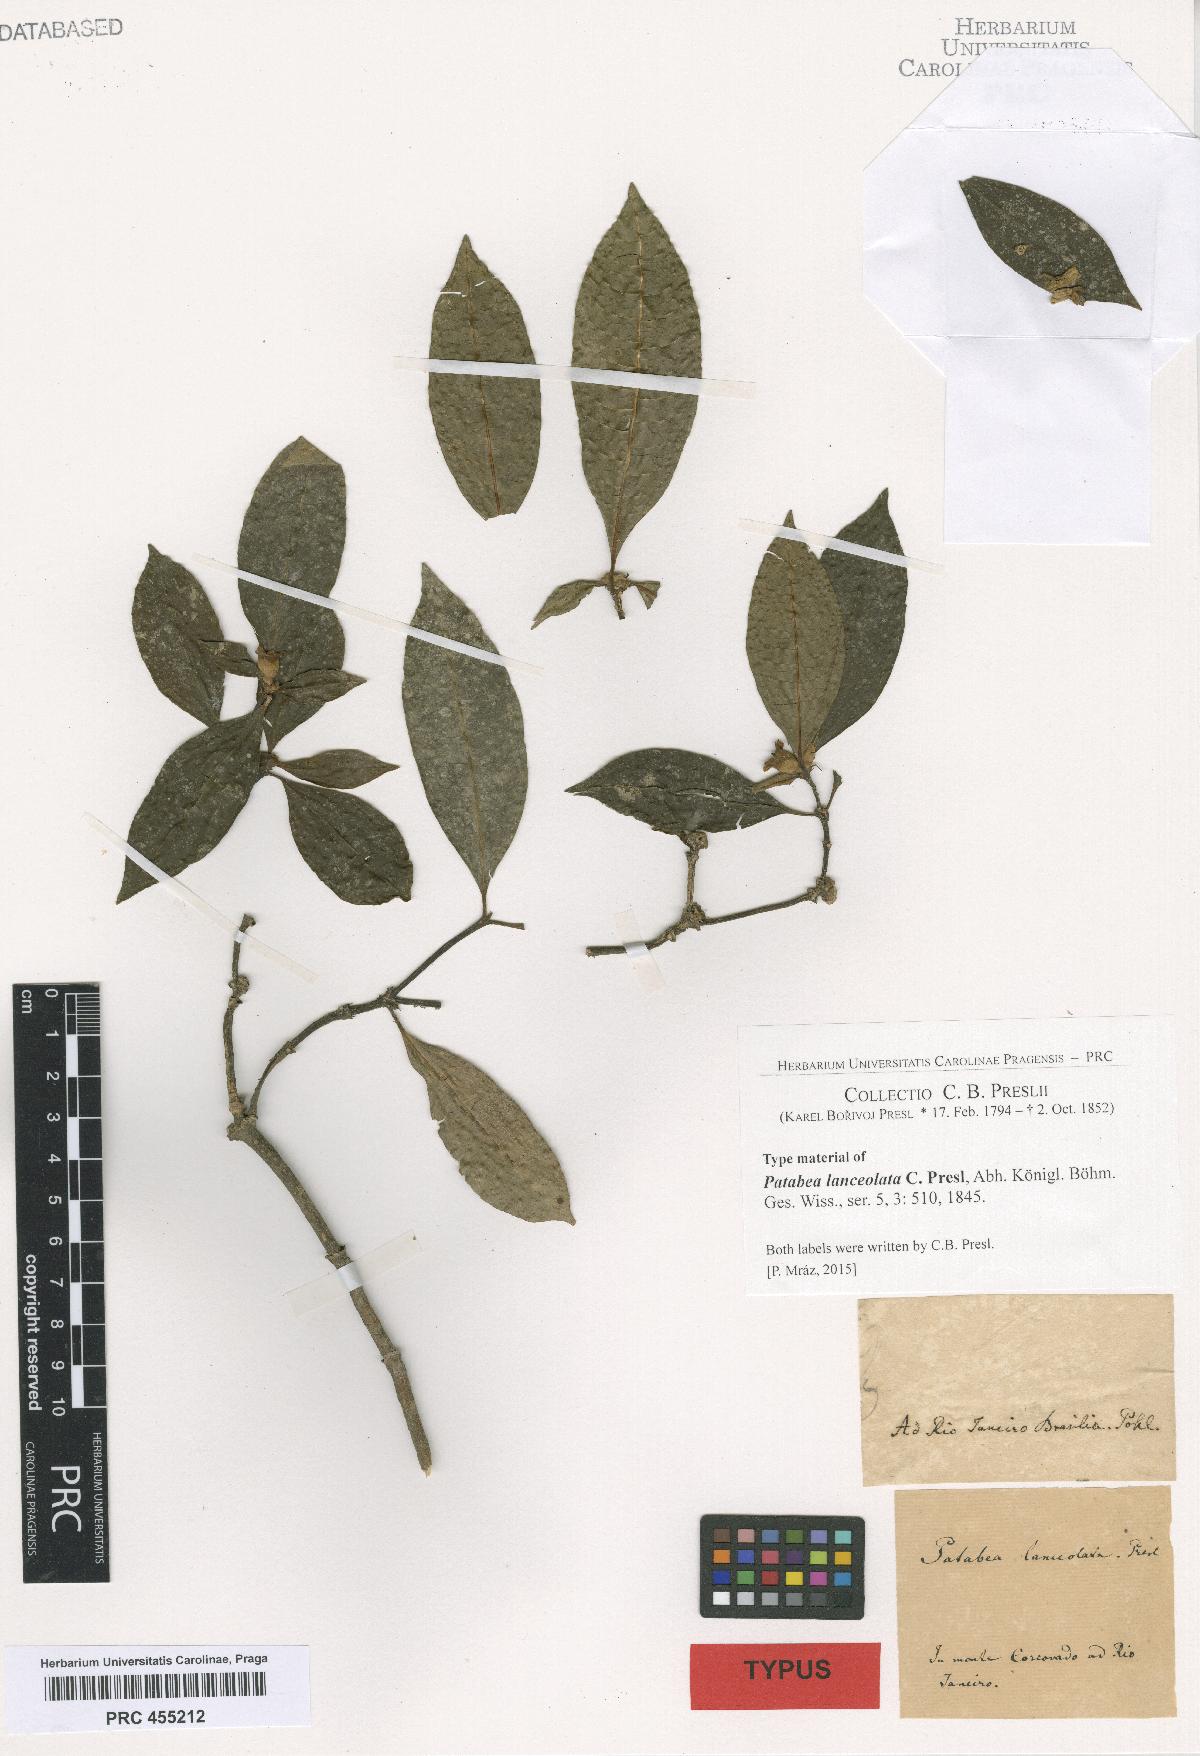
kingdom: Plantae
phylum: Tracheophyta
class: Magnoliopsida
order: Gentianales
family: Rubiaceae
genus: Ixora
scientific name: Ixora
